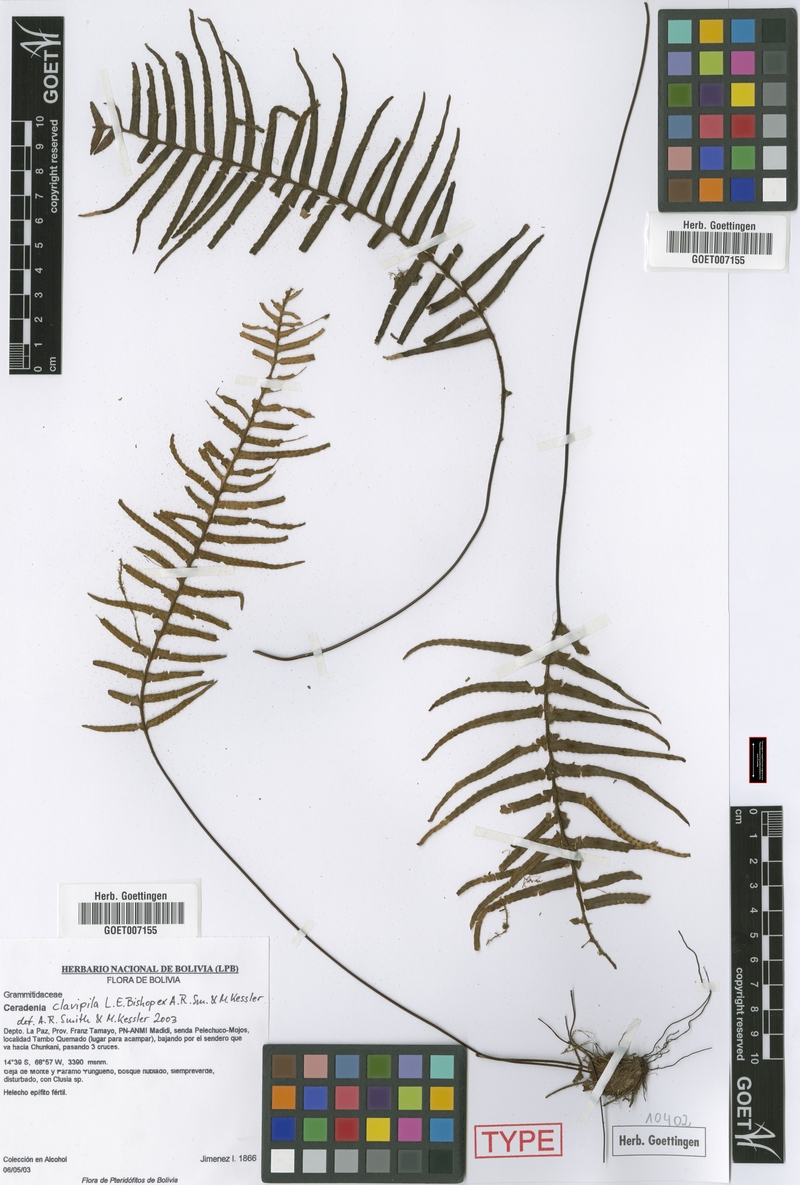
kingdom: Plantae
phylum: Tracheophyta
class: Polypodiopsida
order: Polypodiales
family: Polypodiaceae
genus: Ceradenia
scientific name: Ceradenia clavipila
